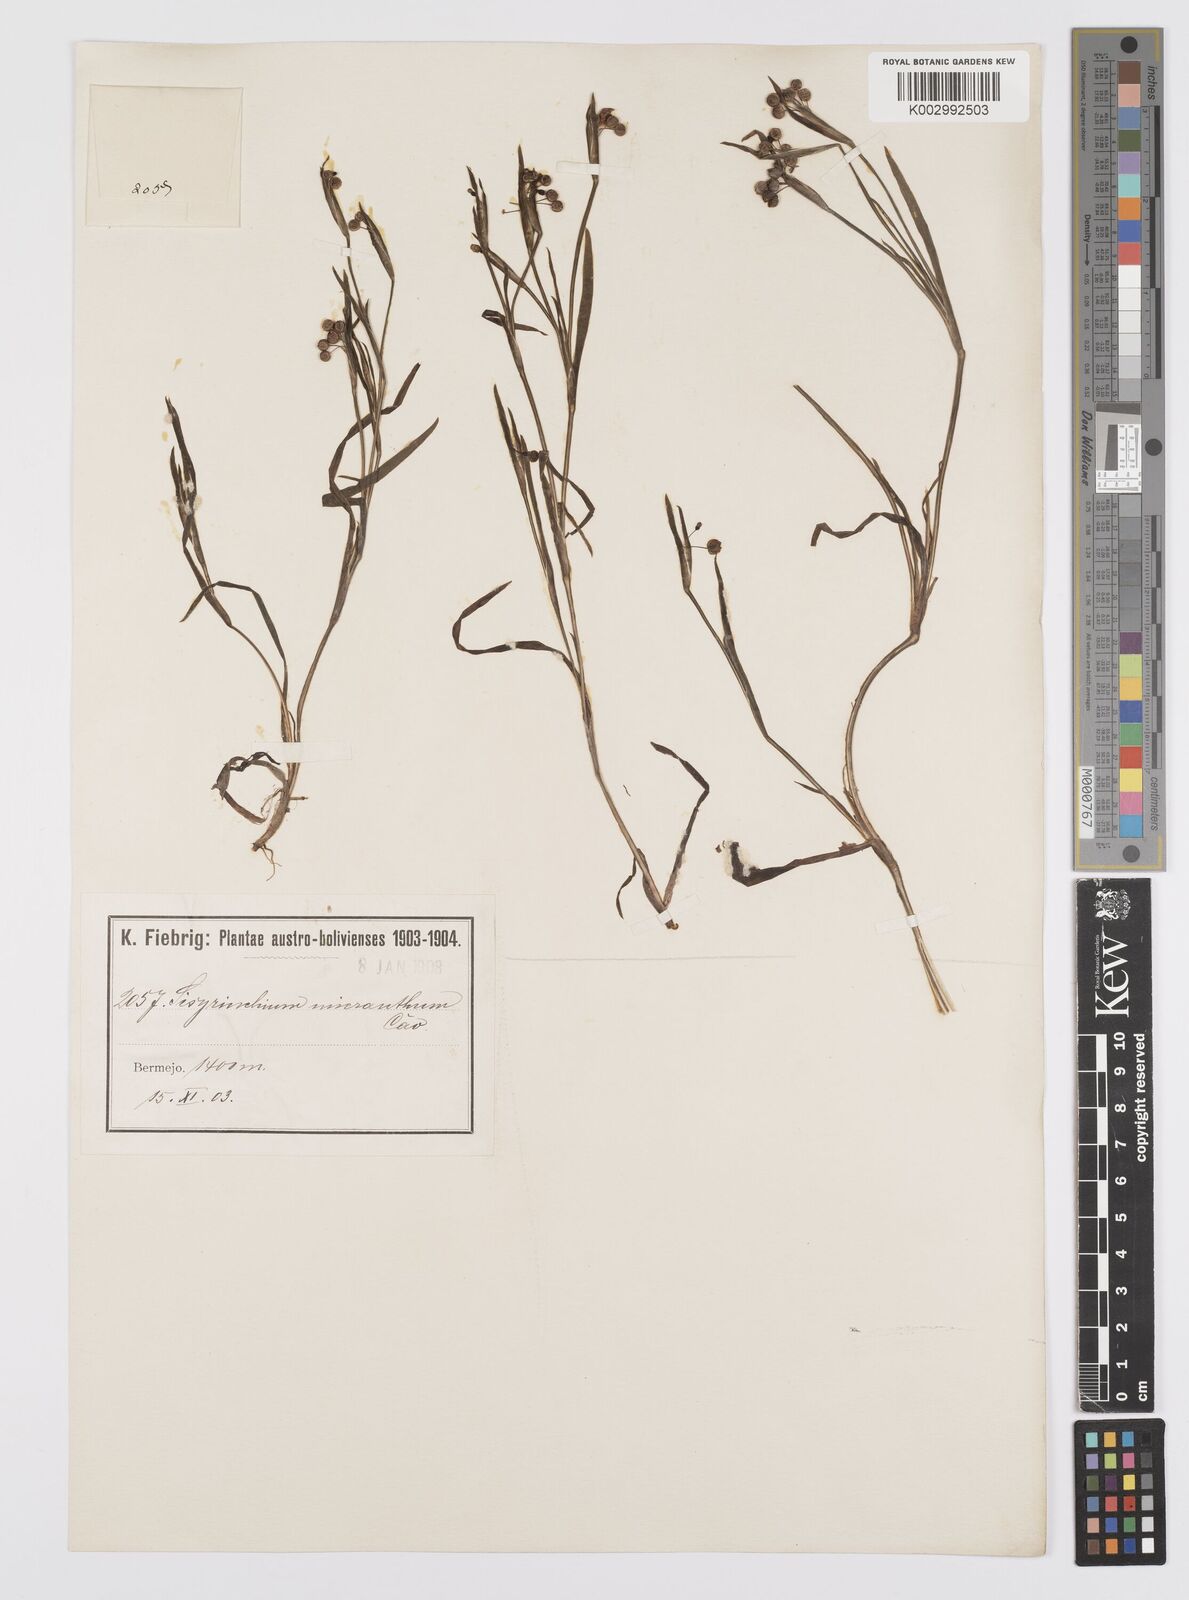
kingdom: Plantae
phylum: Tracheophyta
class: Liliopsida
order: Asparagales
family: Iridaceae
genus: Sisyrinchium
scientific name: Sisyrinchium micranthum
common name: Bermuda pigroot
